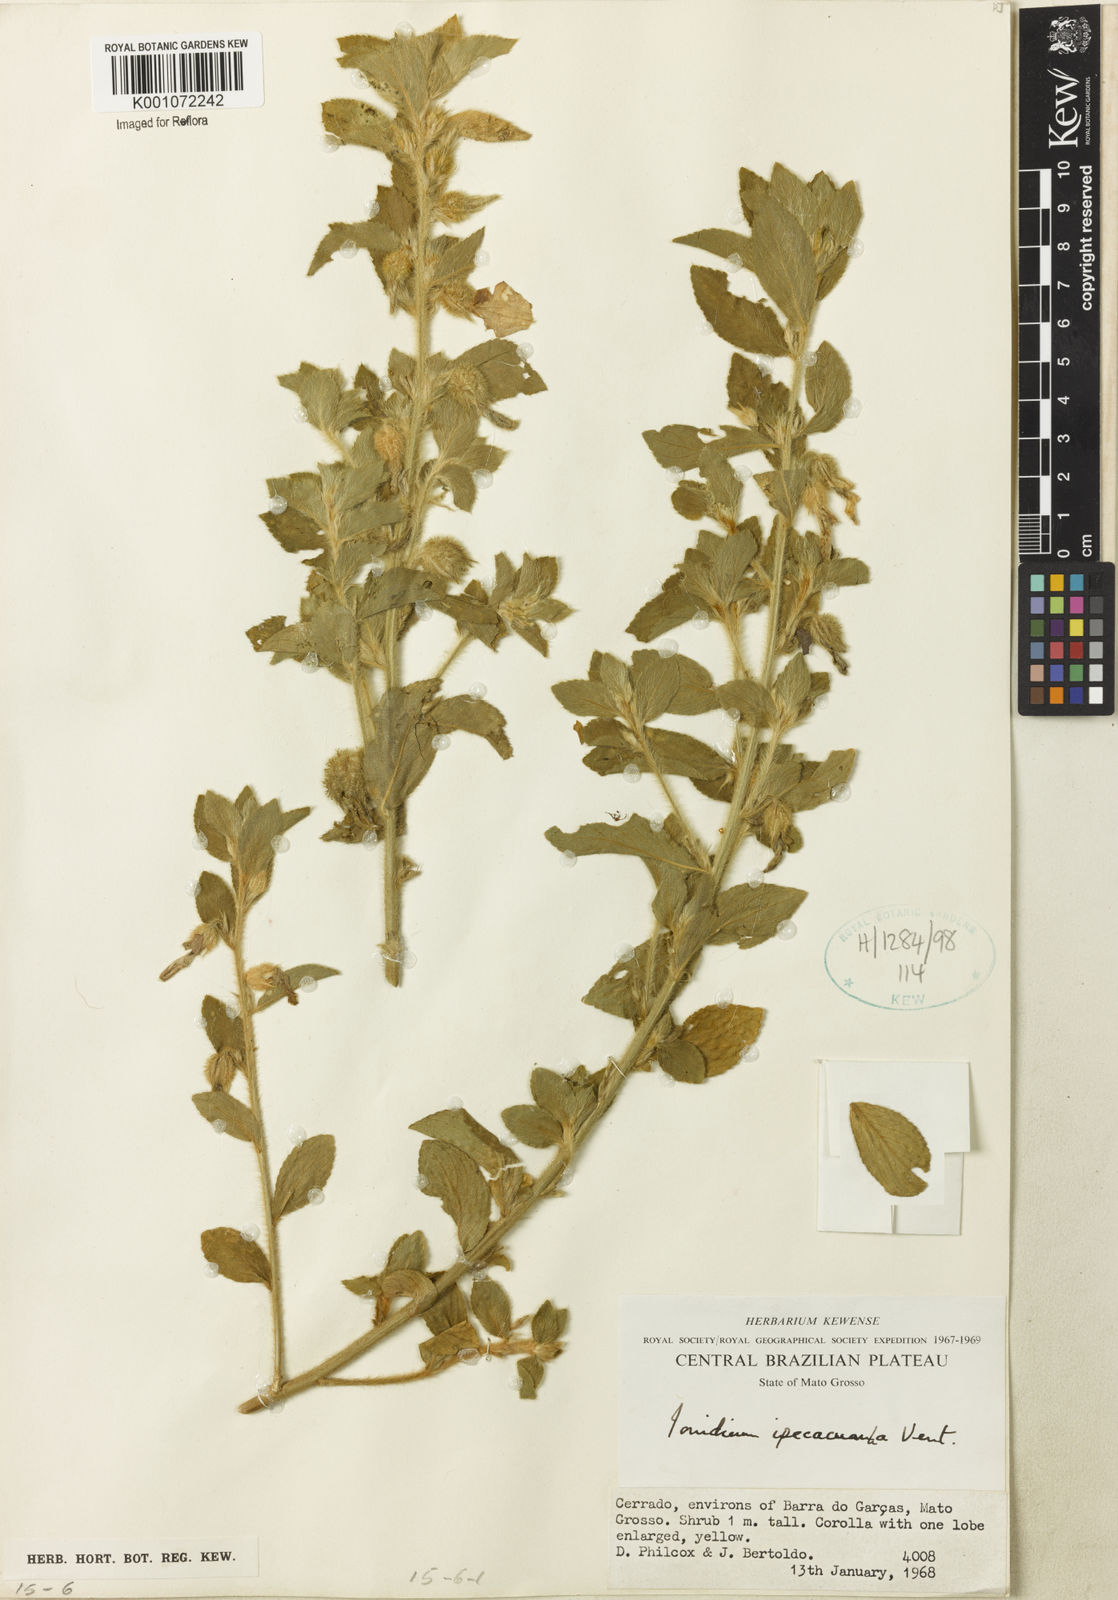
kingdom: Plantae
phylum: Tracheophyta
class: Magnoliopsida
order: Malpighiales
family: Violaceae
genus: Pombalia
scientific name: Pombalia calceolaria
